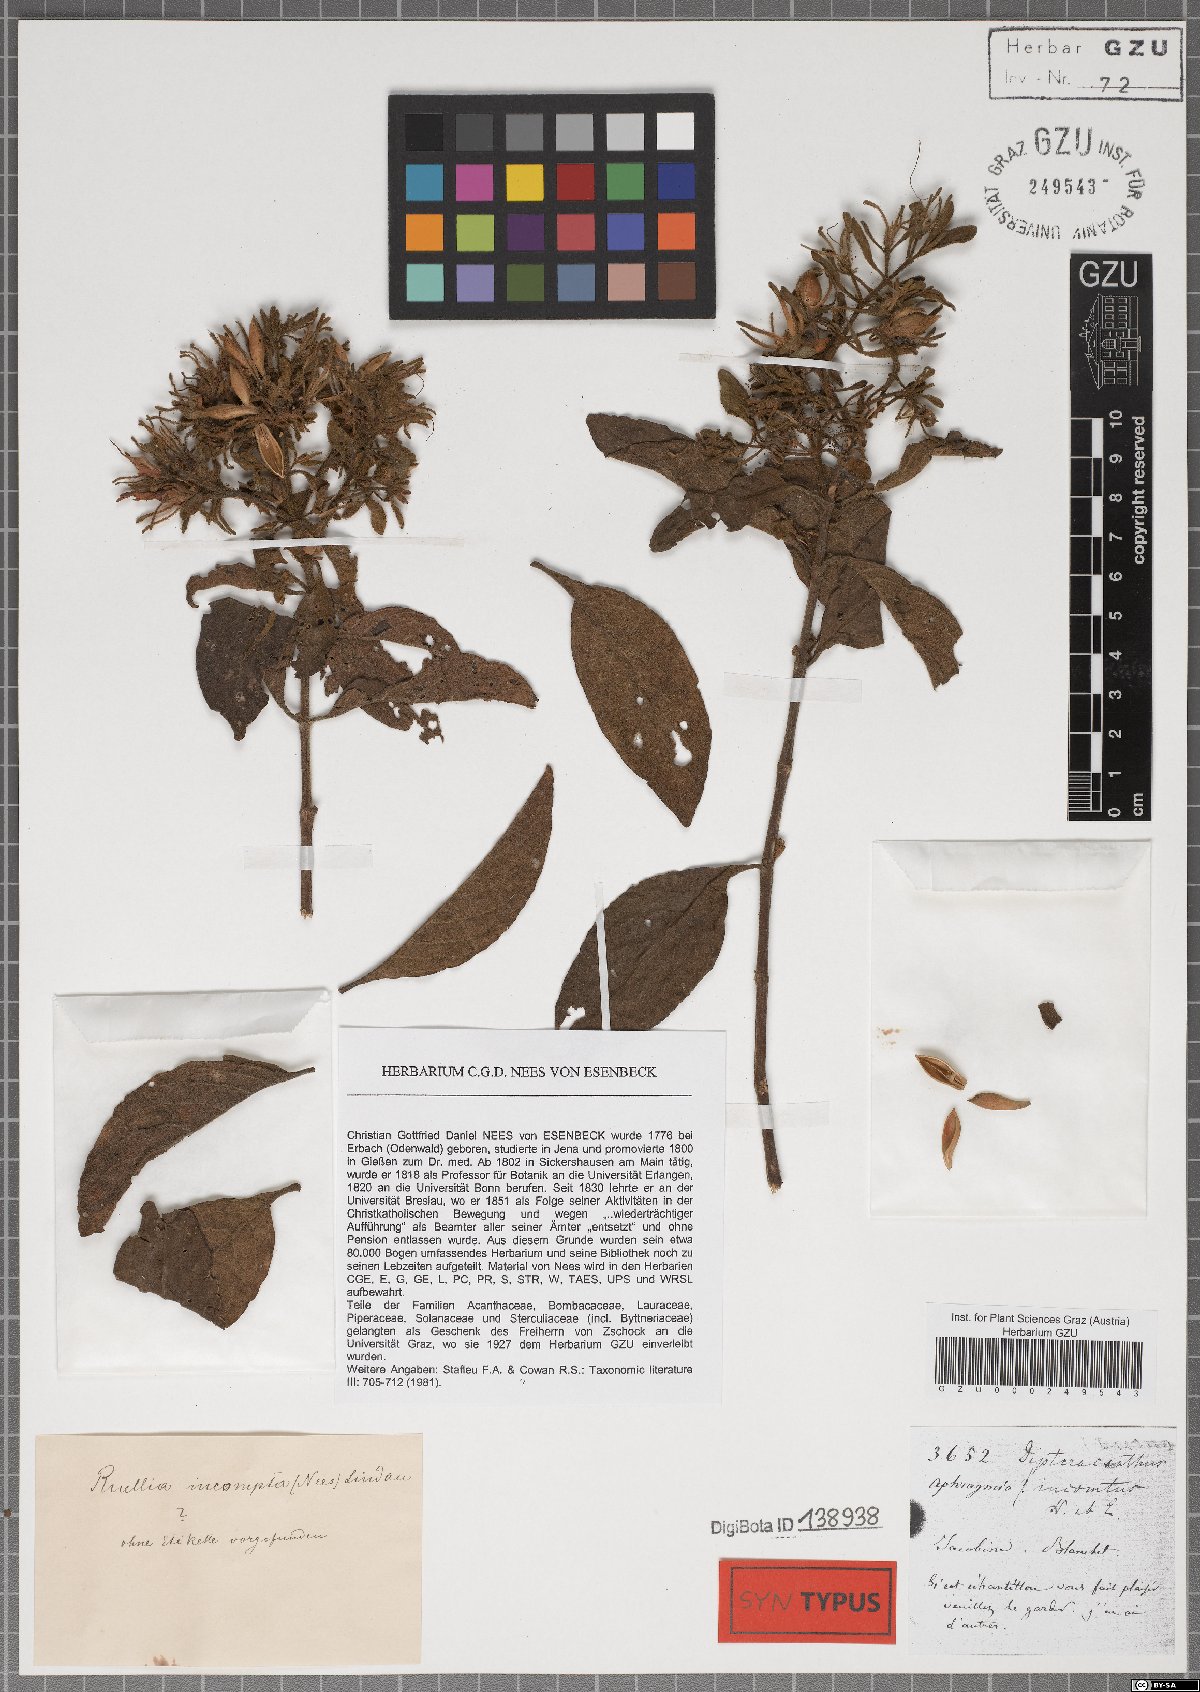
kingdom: Plantae
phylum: Tracheophyta
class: Magnoliopsida
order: Lamiales
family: Acanthaceae
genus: Ruellia
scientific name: Ruellia incomta
